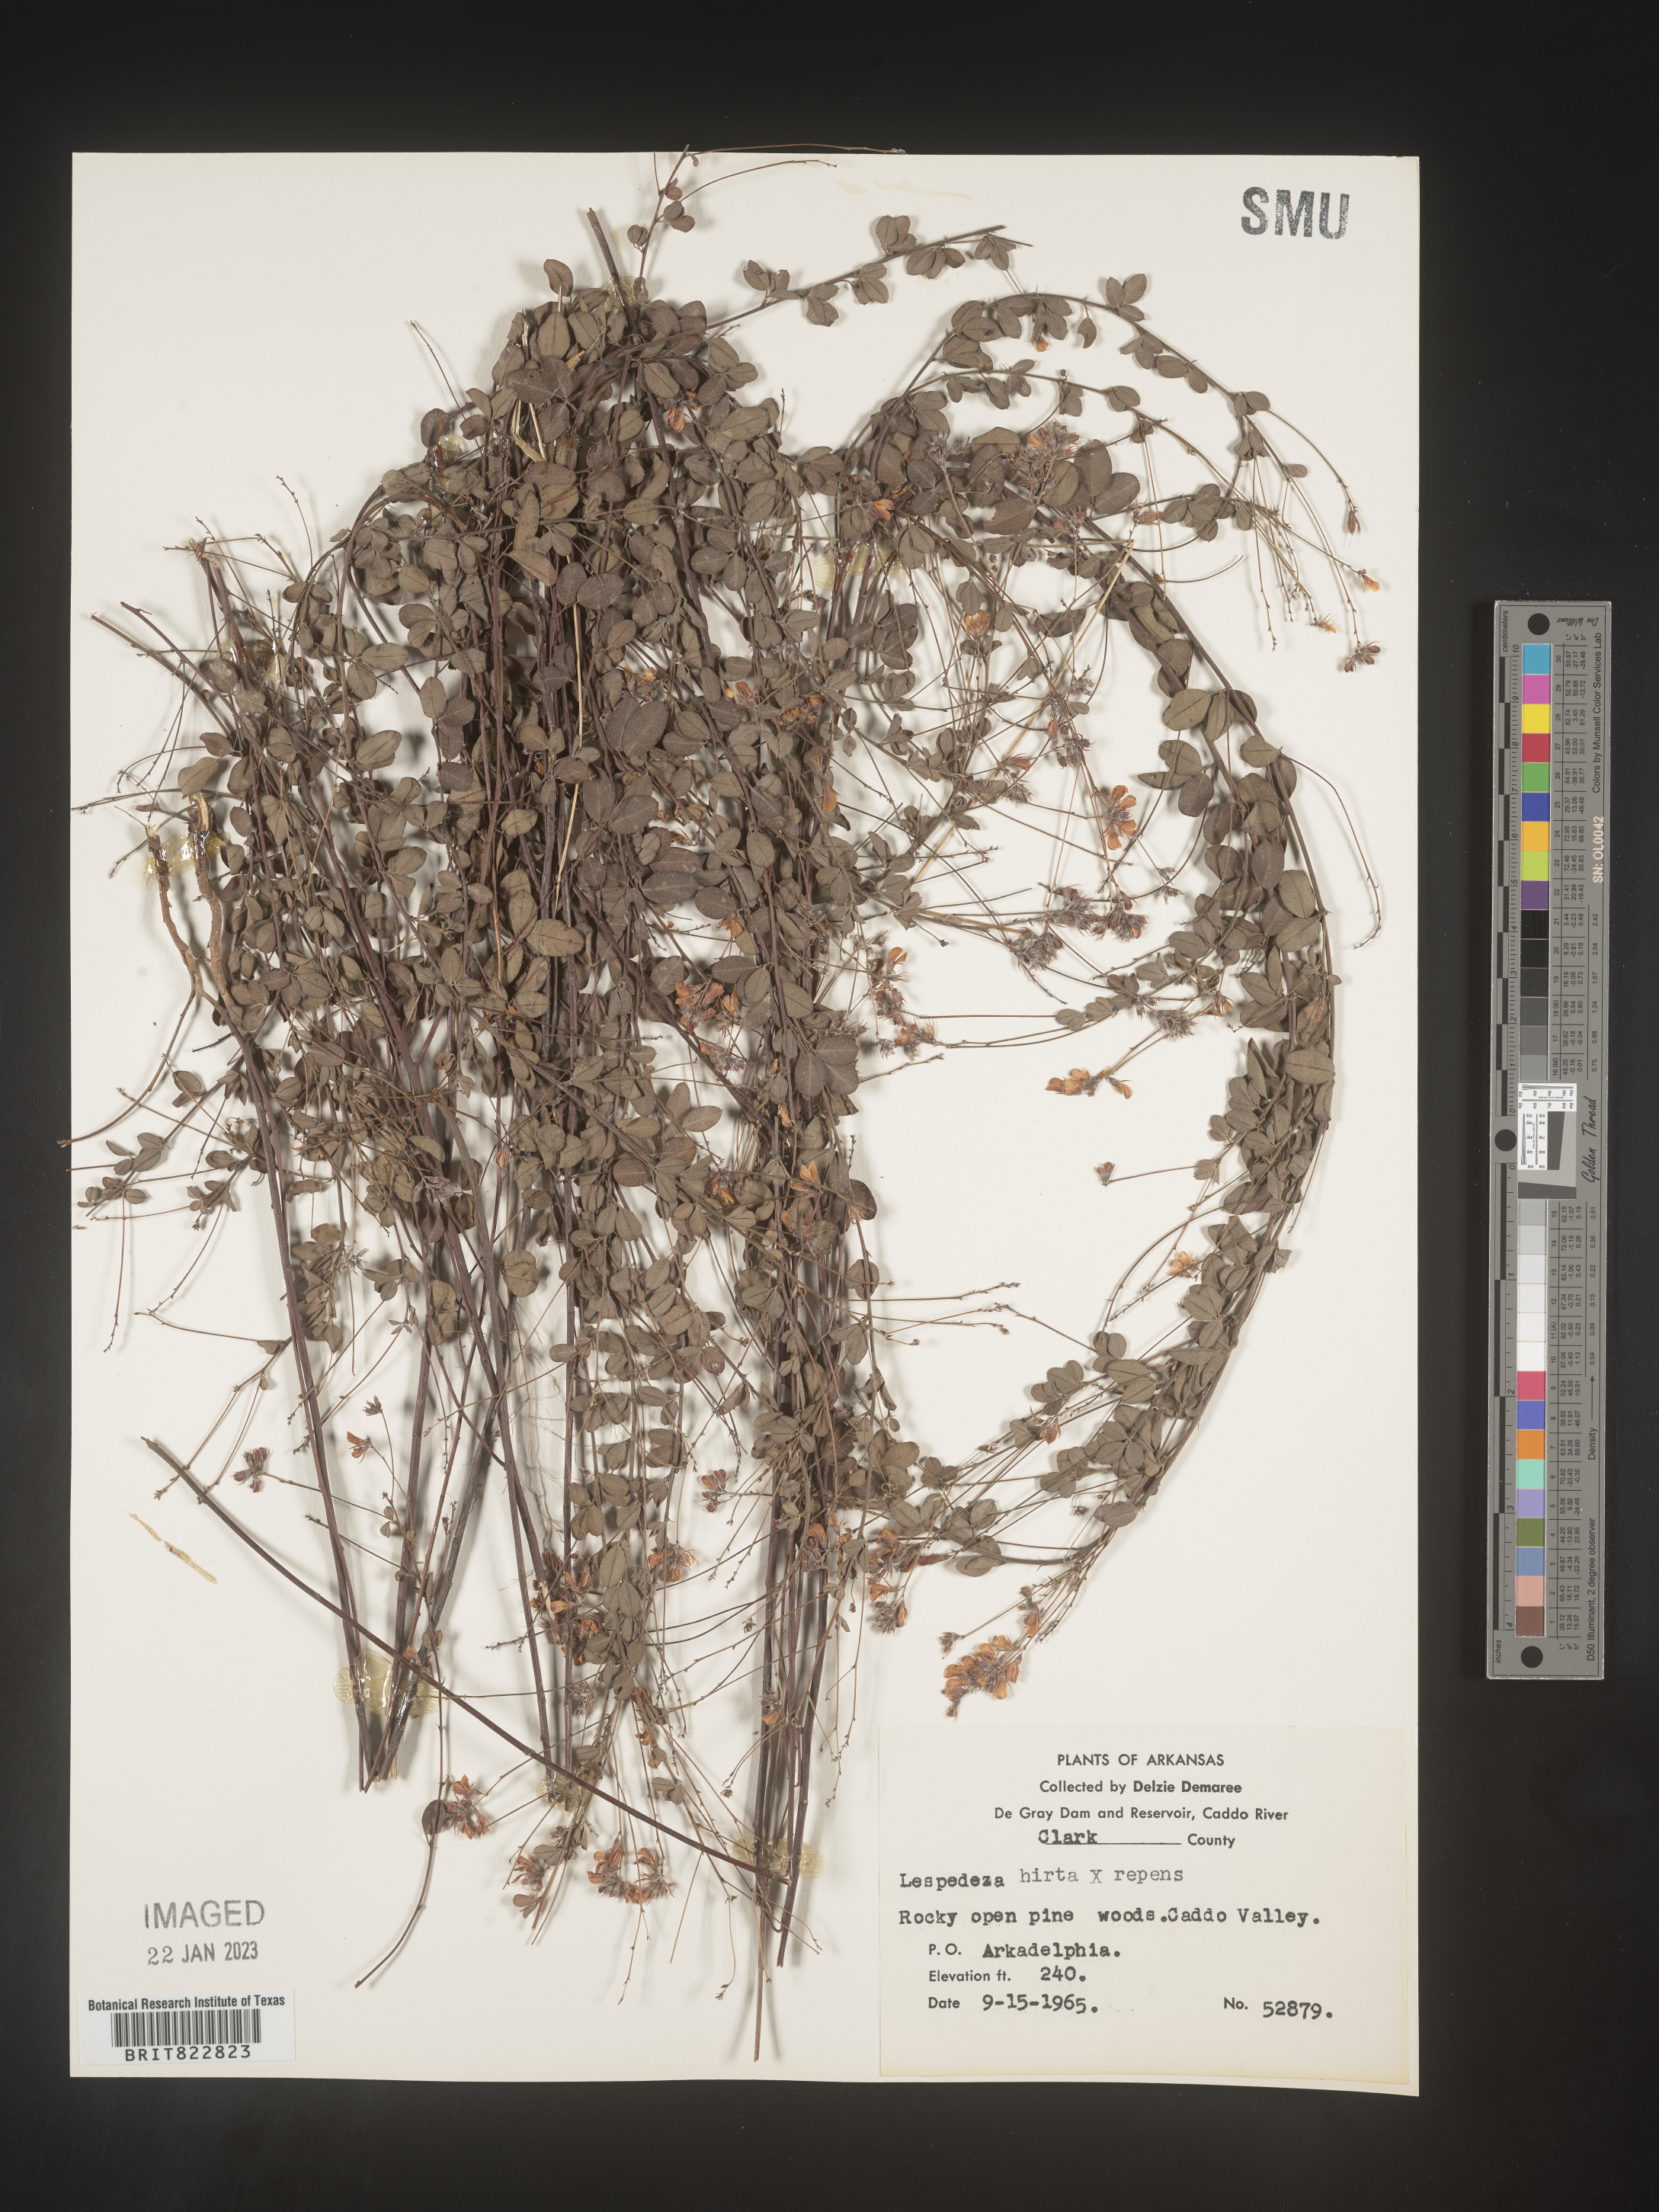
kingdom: Plantae
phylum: Tracheophyta
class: Magnoliopsida
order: Fabales
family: Fabaceae
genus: Lespedeza
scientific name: Lespedeza hirta
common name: Hairy lespedeza
